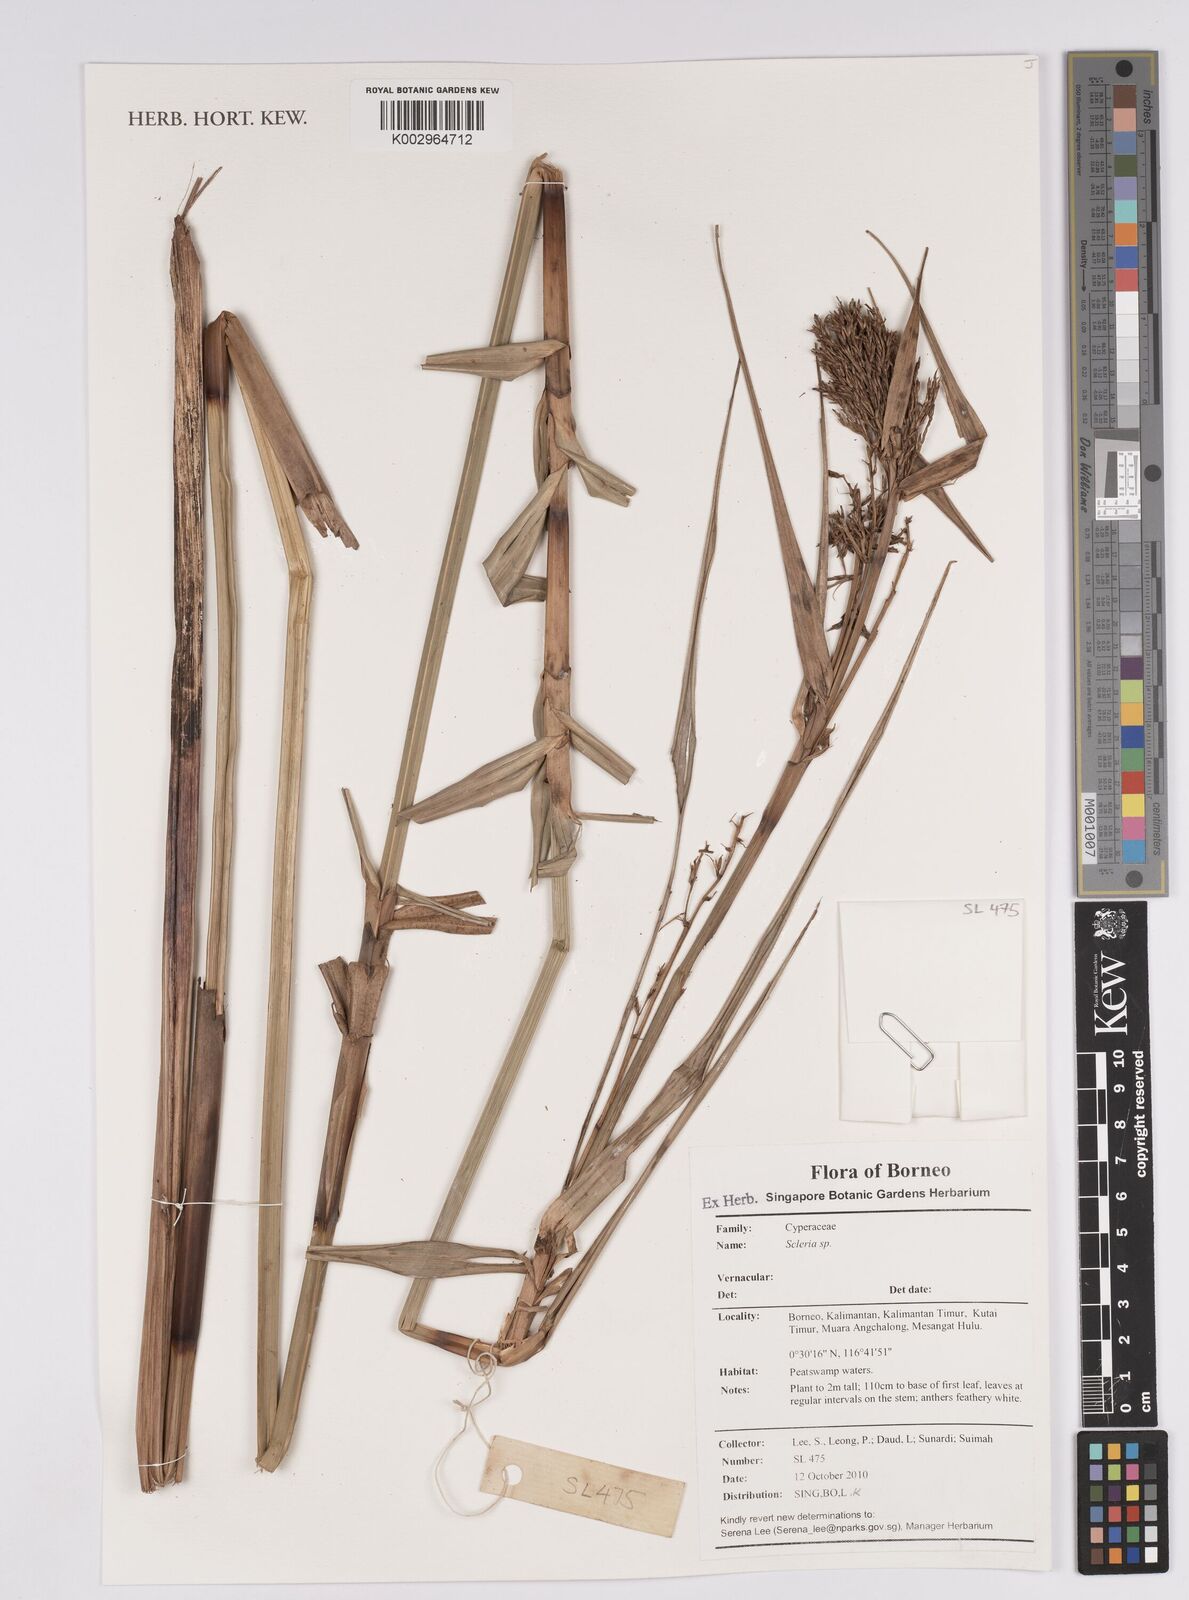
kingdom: Plantae
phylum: Tracheophyta
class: Liliopsida
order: Poales
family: Cyperaceae
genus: Scleria
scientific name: Scleria
